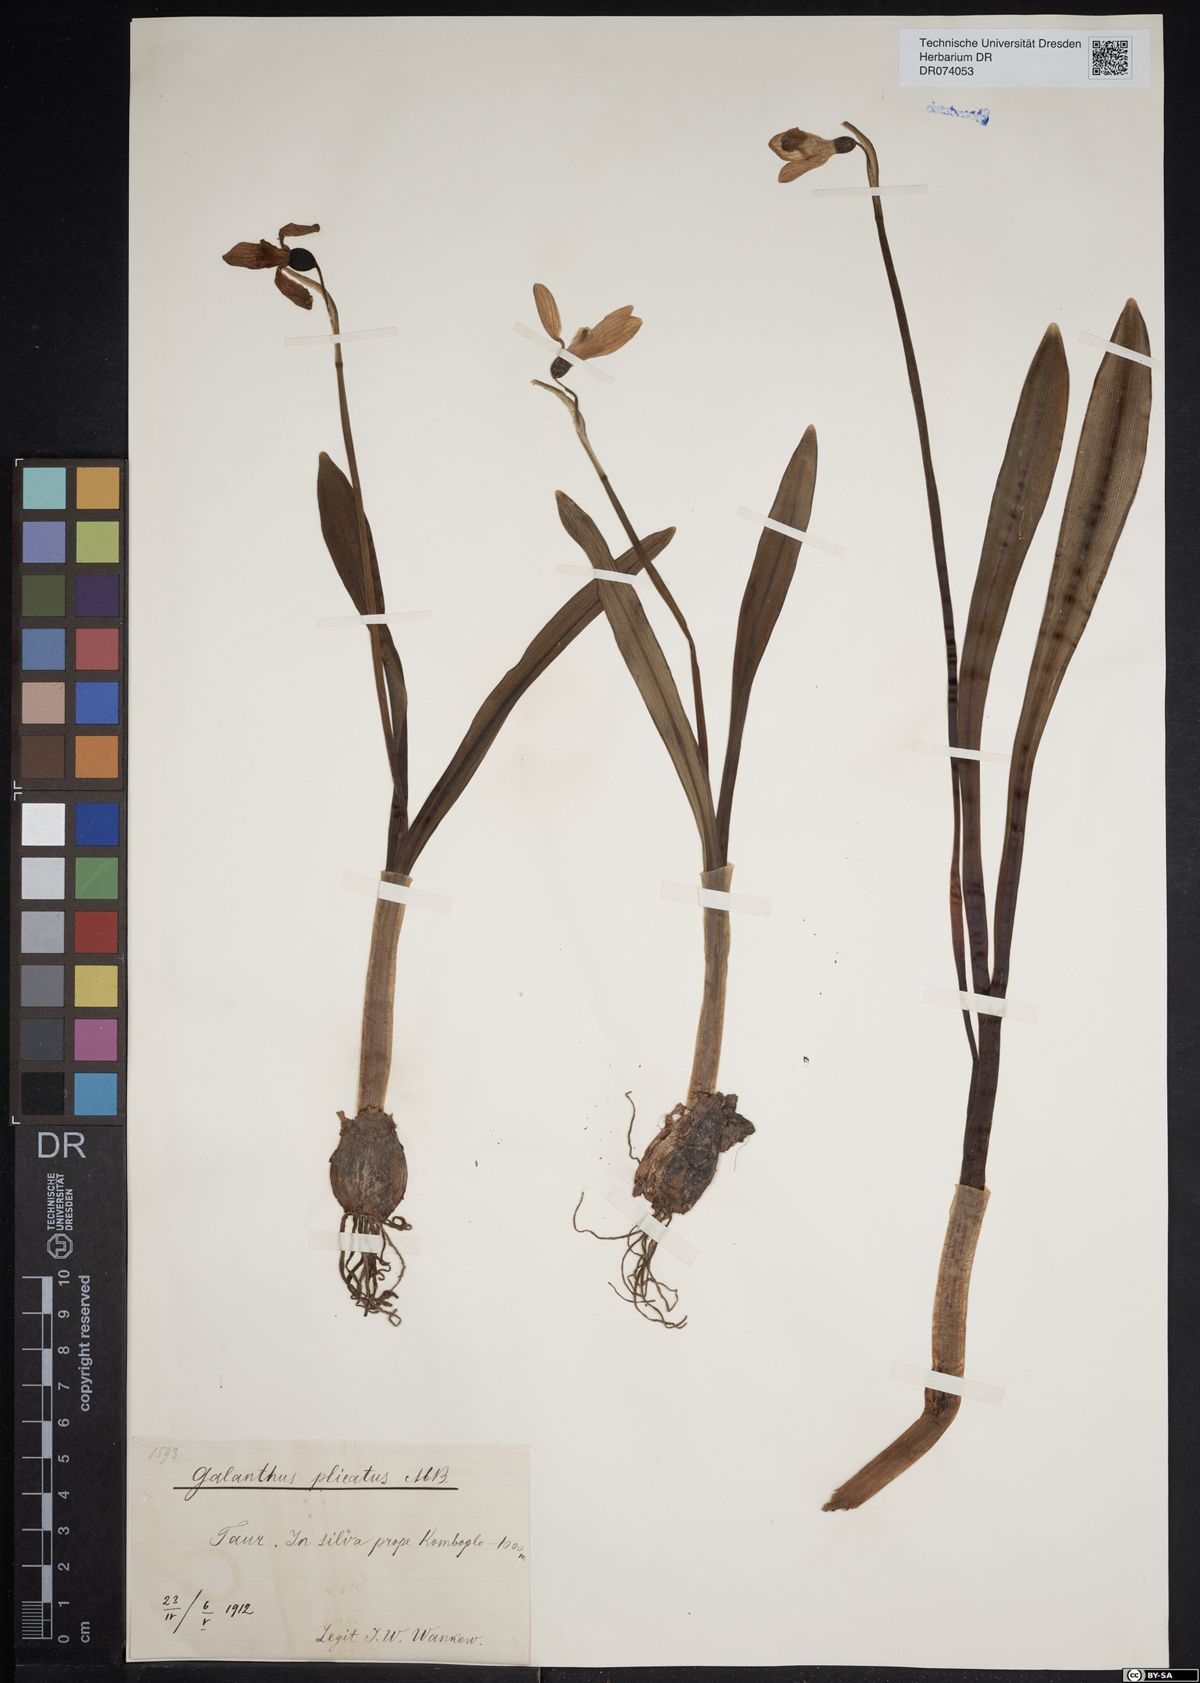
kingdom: Plantae
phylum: Tracheophyta
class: Liliopsida
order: Asparagales
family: Amaryllidaceae
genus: Galanthus
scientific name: Galanthus plicatus
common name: Pleated snowdrop
